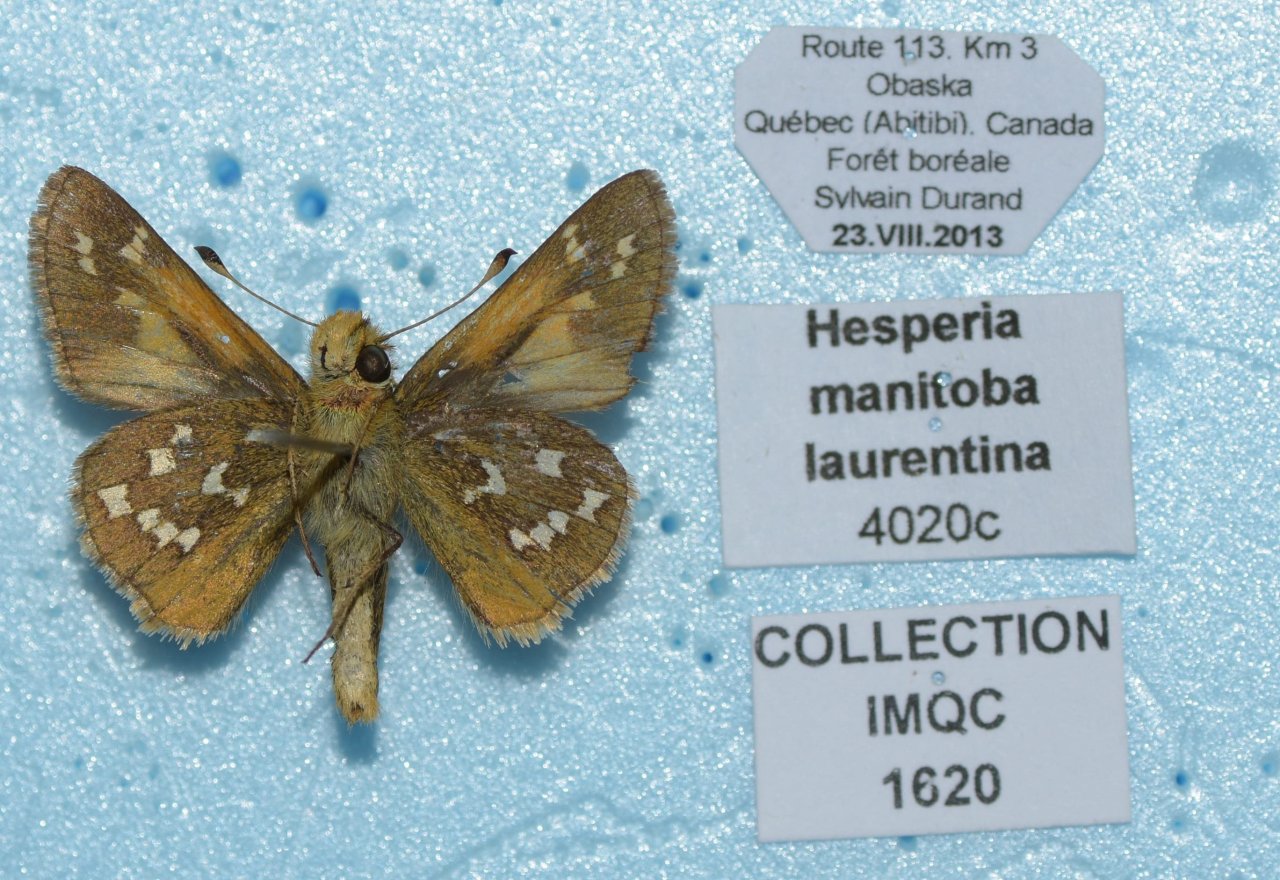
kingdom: Animalia
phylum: Arthropoda
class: Insecta
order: Lepidoptera
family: Hesperiidae
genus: Hesperia
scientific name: Hesperia comma
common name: Common Branded Skipper
